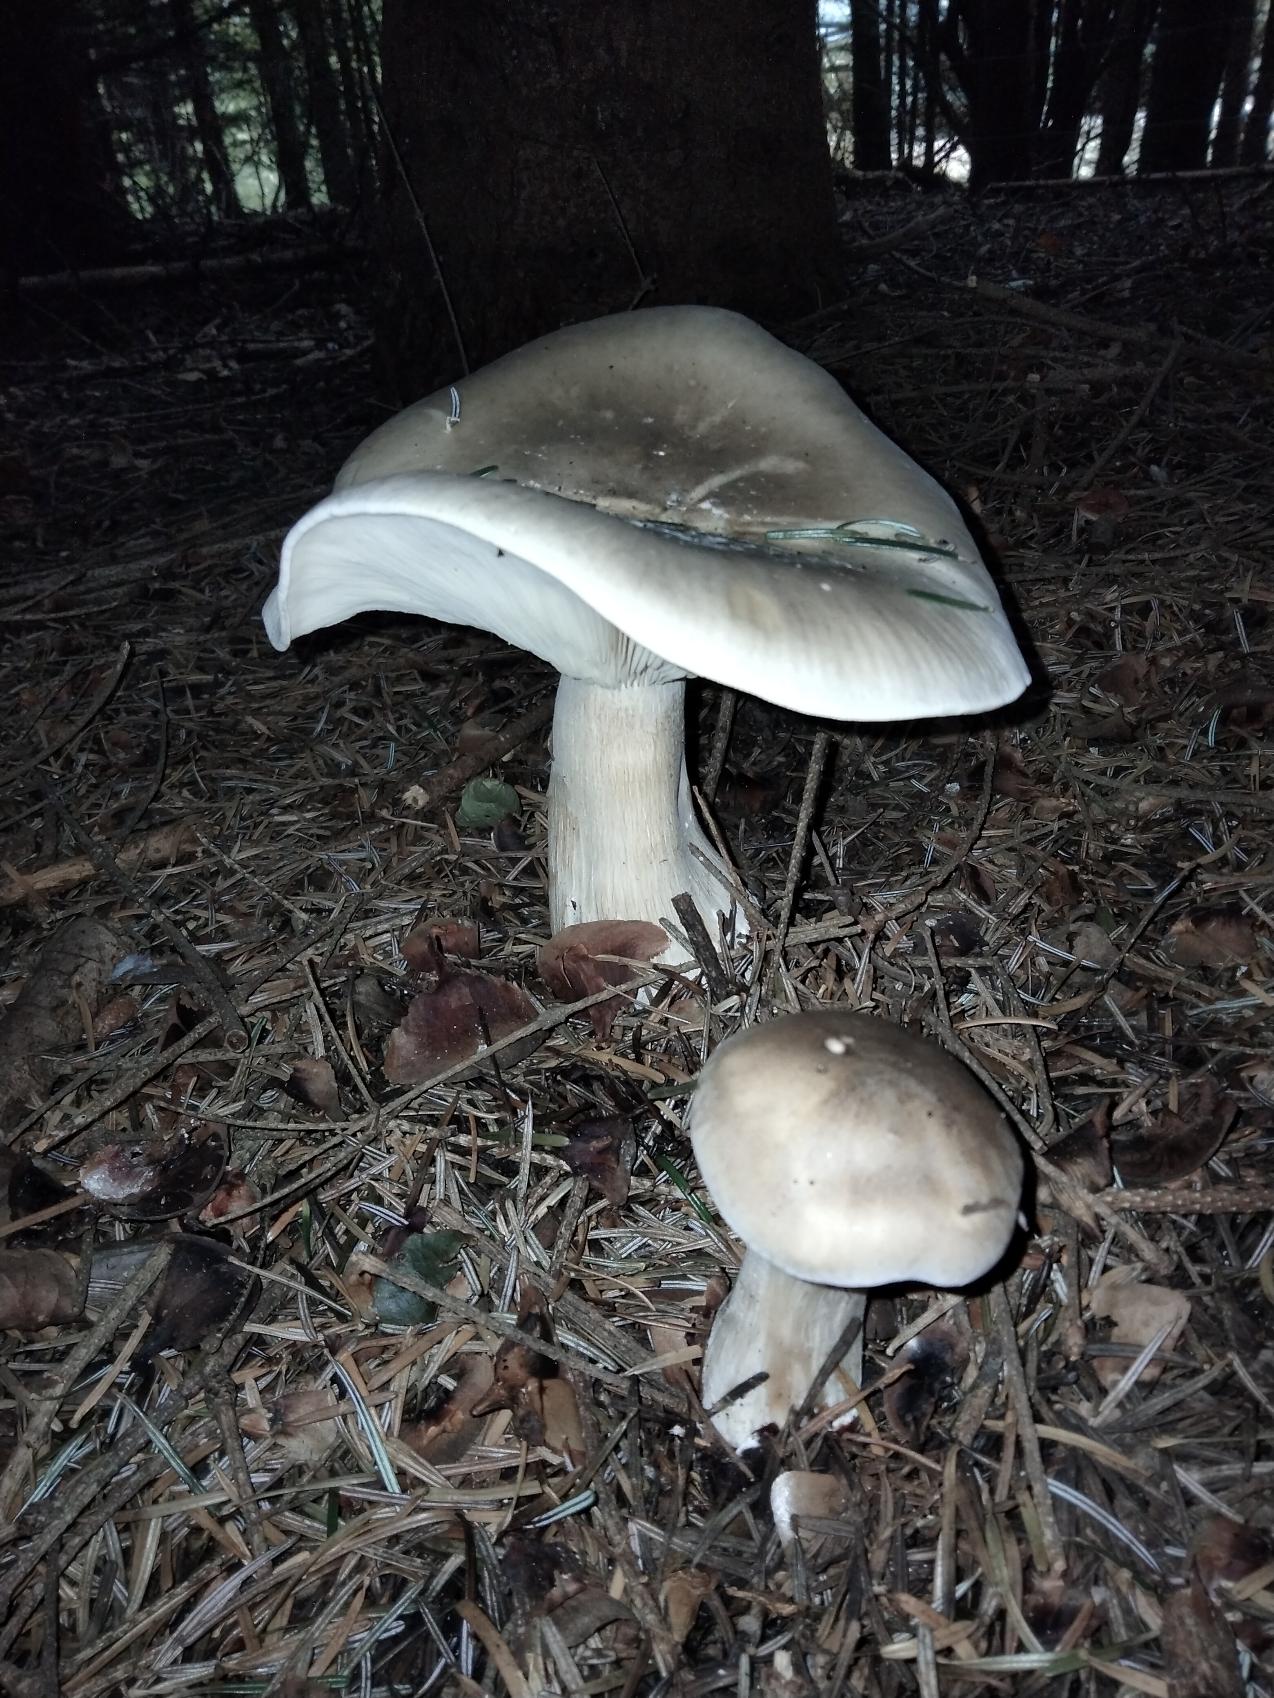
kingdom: Fungi
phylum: Basidiomycota
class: Agaricomycetes
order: Agaricales
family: Tricholomataceae
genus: Clitocybe
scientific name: Clitocybe nebularis
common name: Tåge-tragthat
